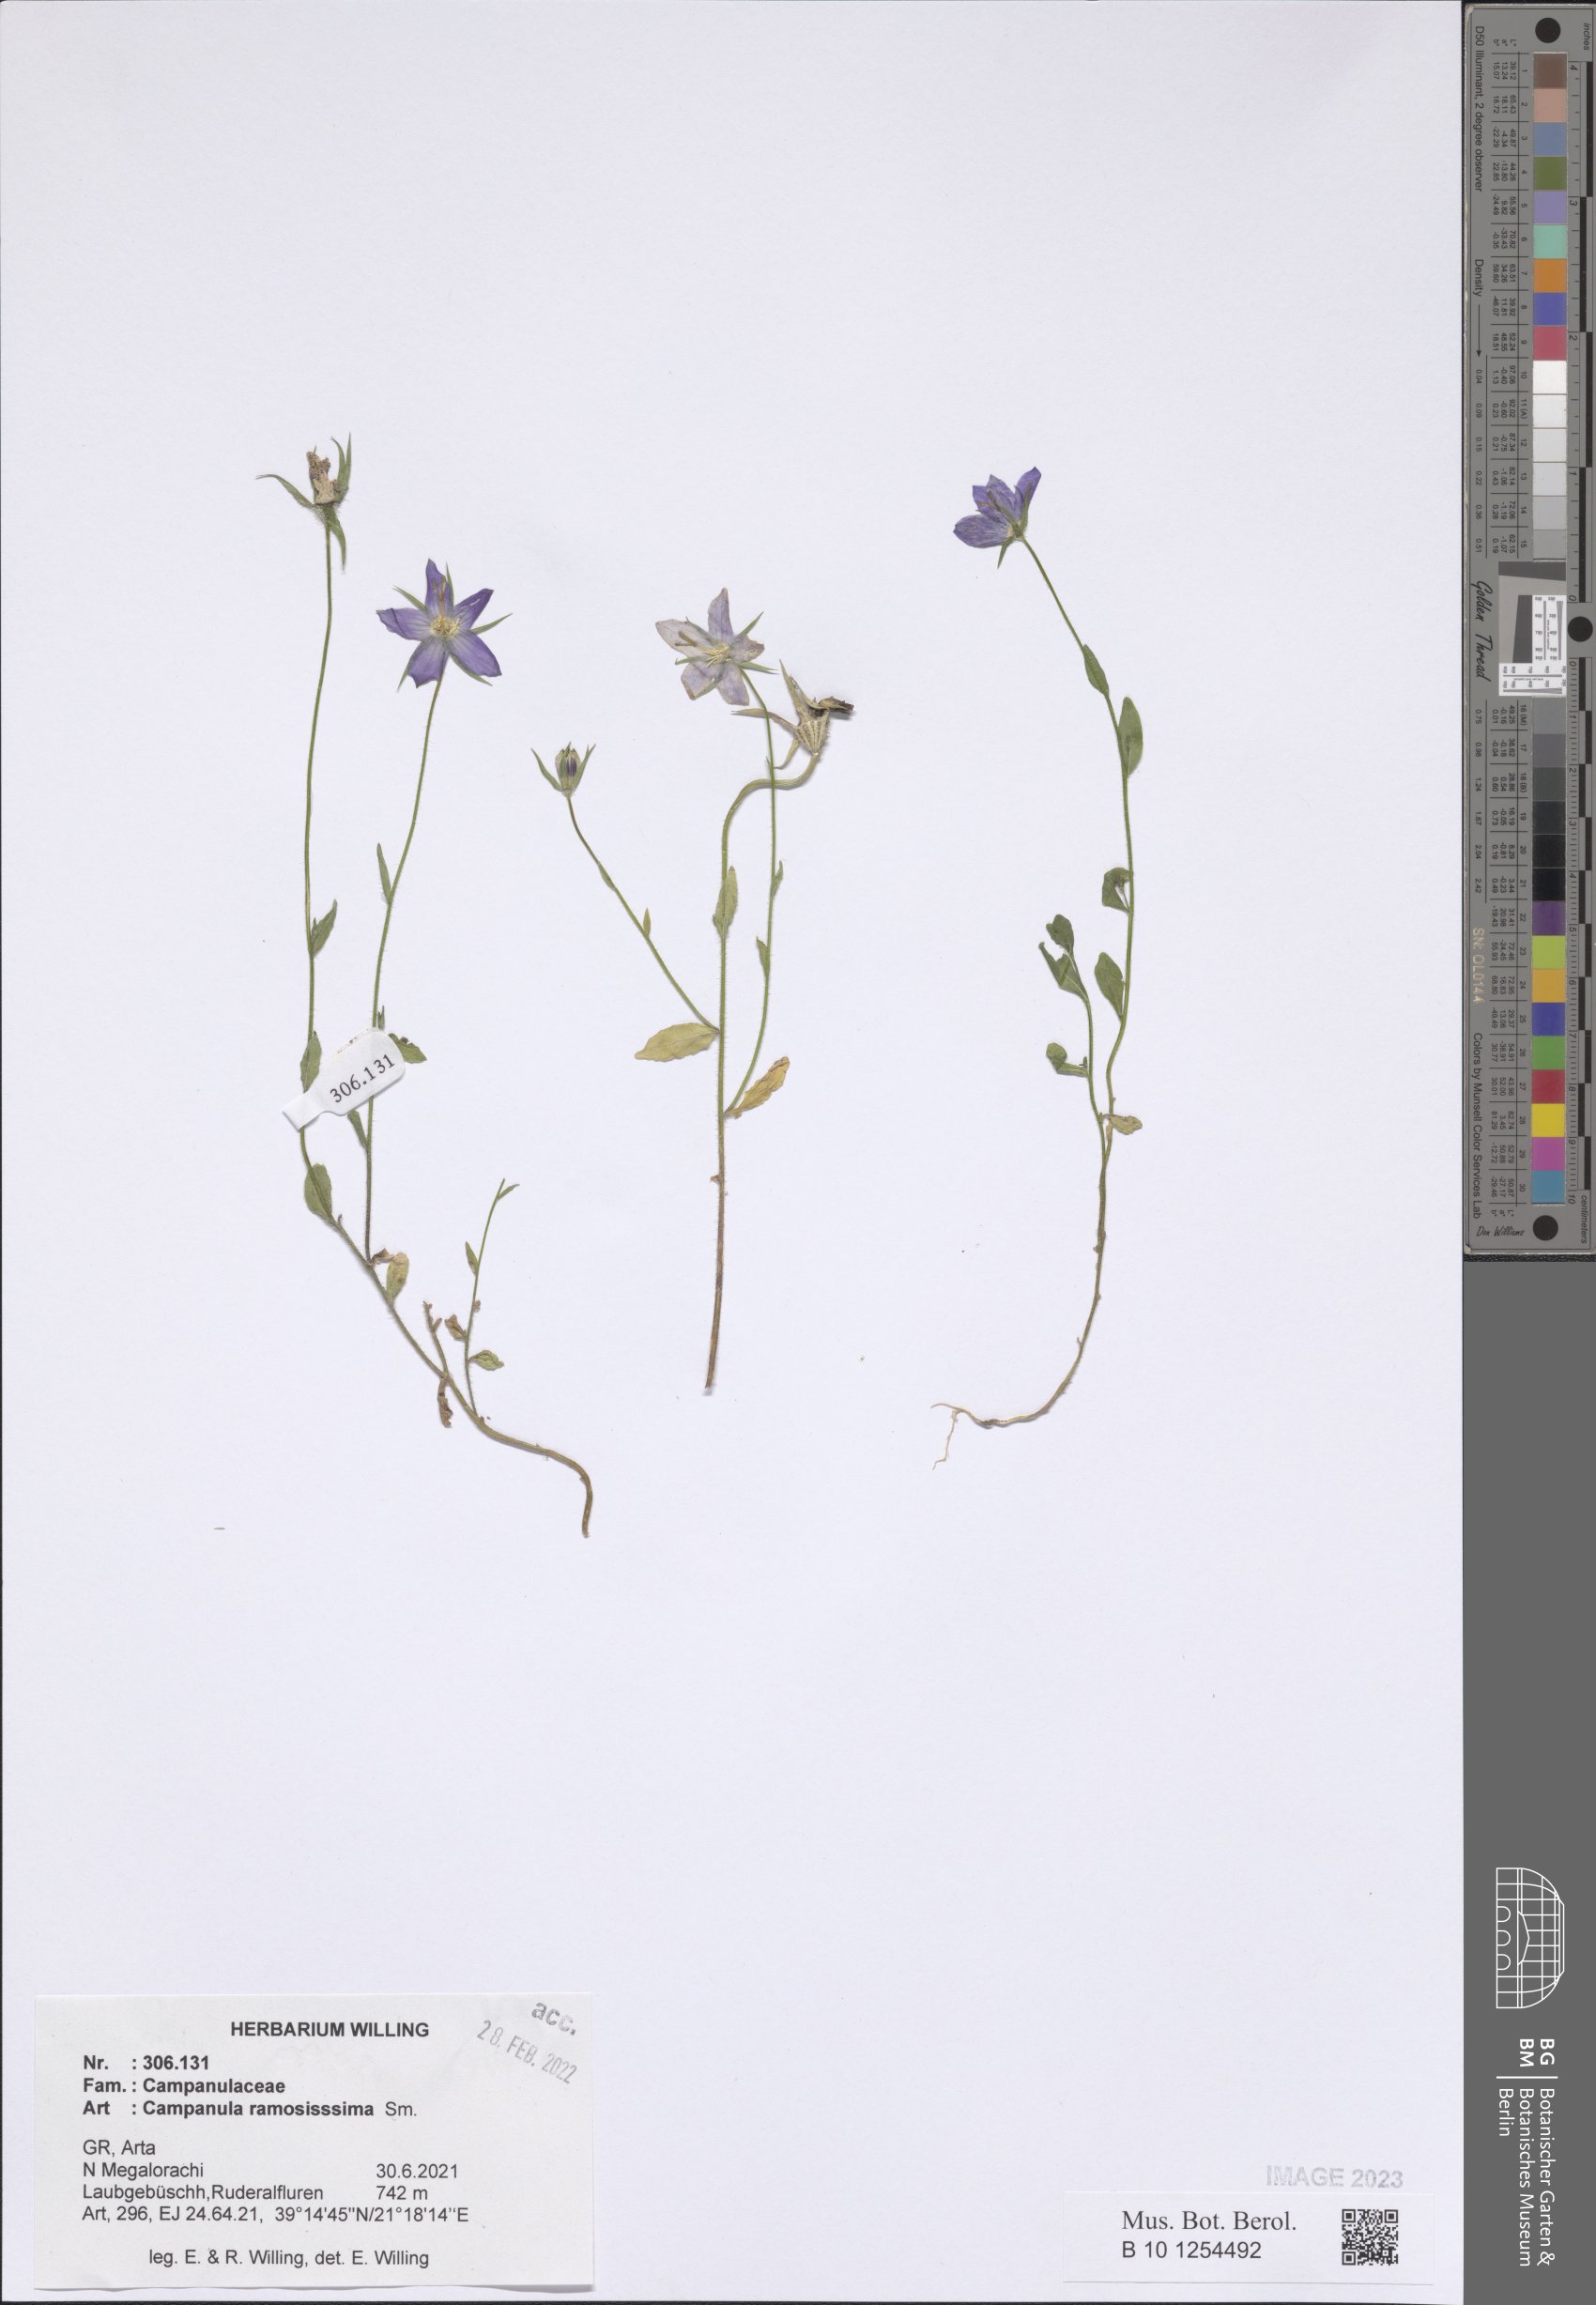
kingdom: Plantae
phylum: Tracheophyta
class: Magnoliopsida
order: Asterales
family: Campanulaceae
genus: Campanula
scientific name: Campanula ramosissima
